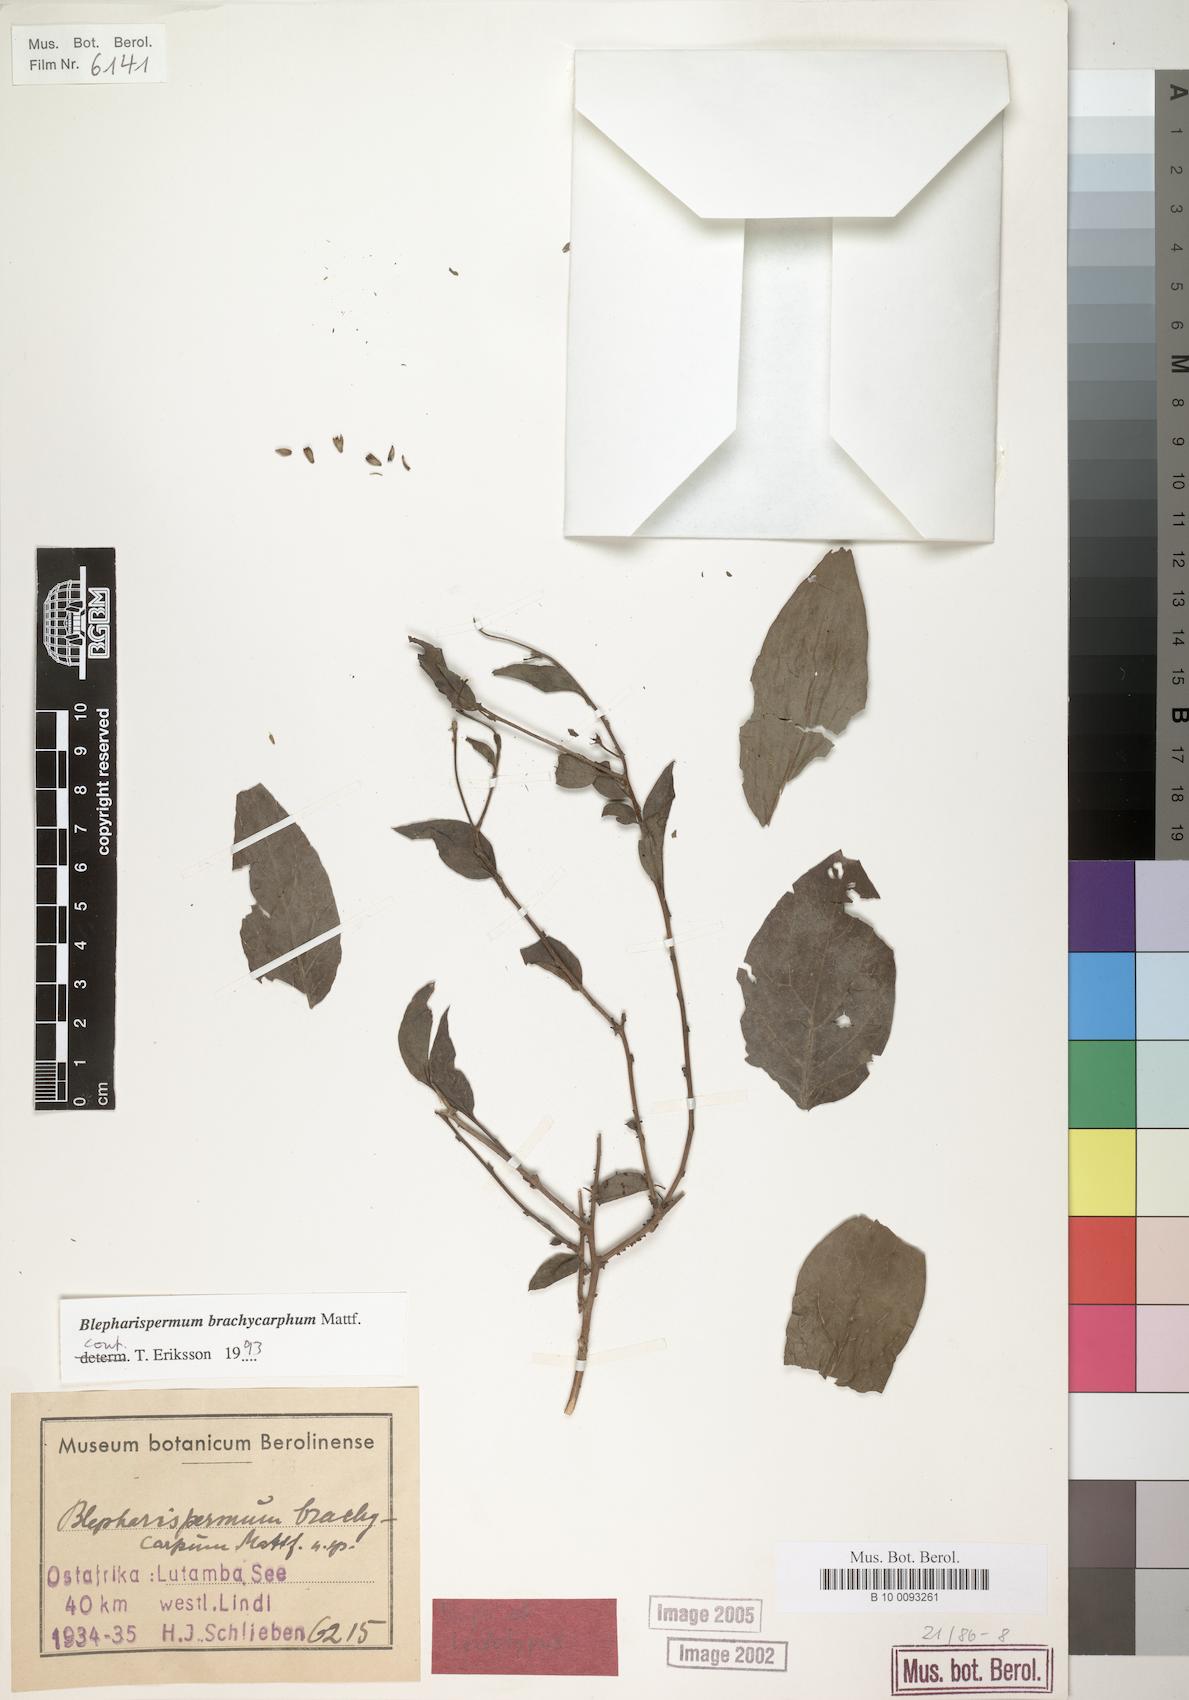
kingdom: Plantae
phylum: Tracheophyta
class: Magnoliopsida
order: Asterales
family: Asteraceae
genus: Blepharispermum
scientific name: Blepharispermum brachycarphum
